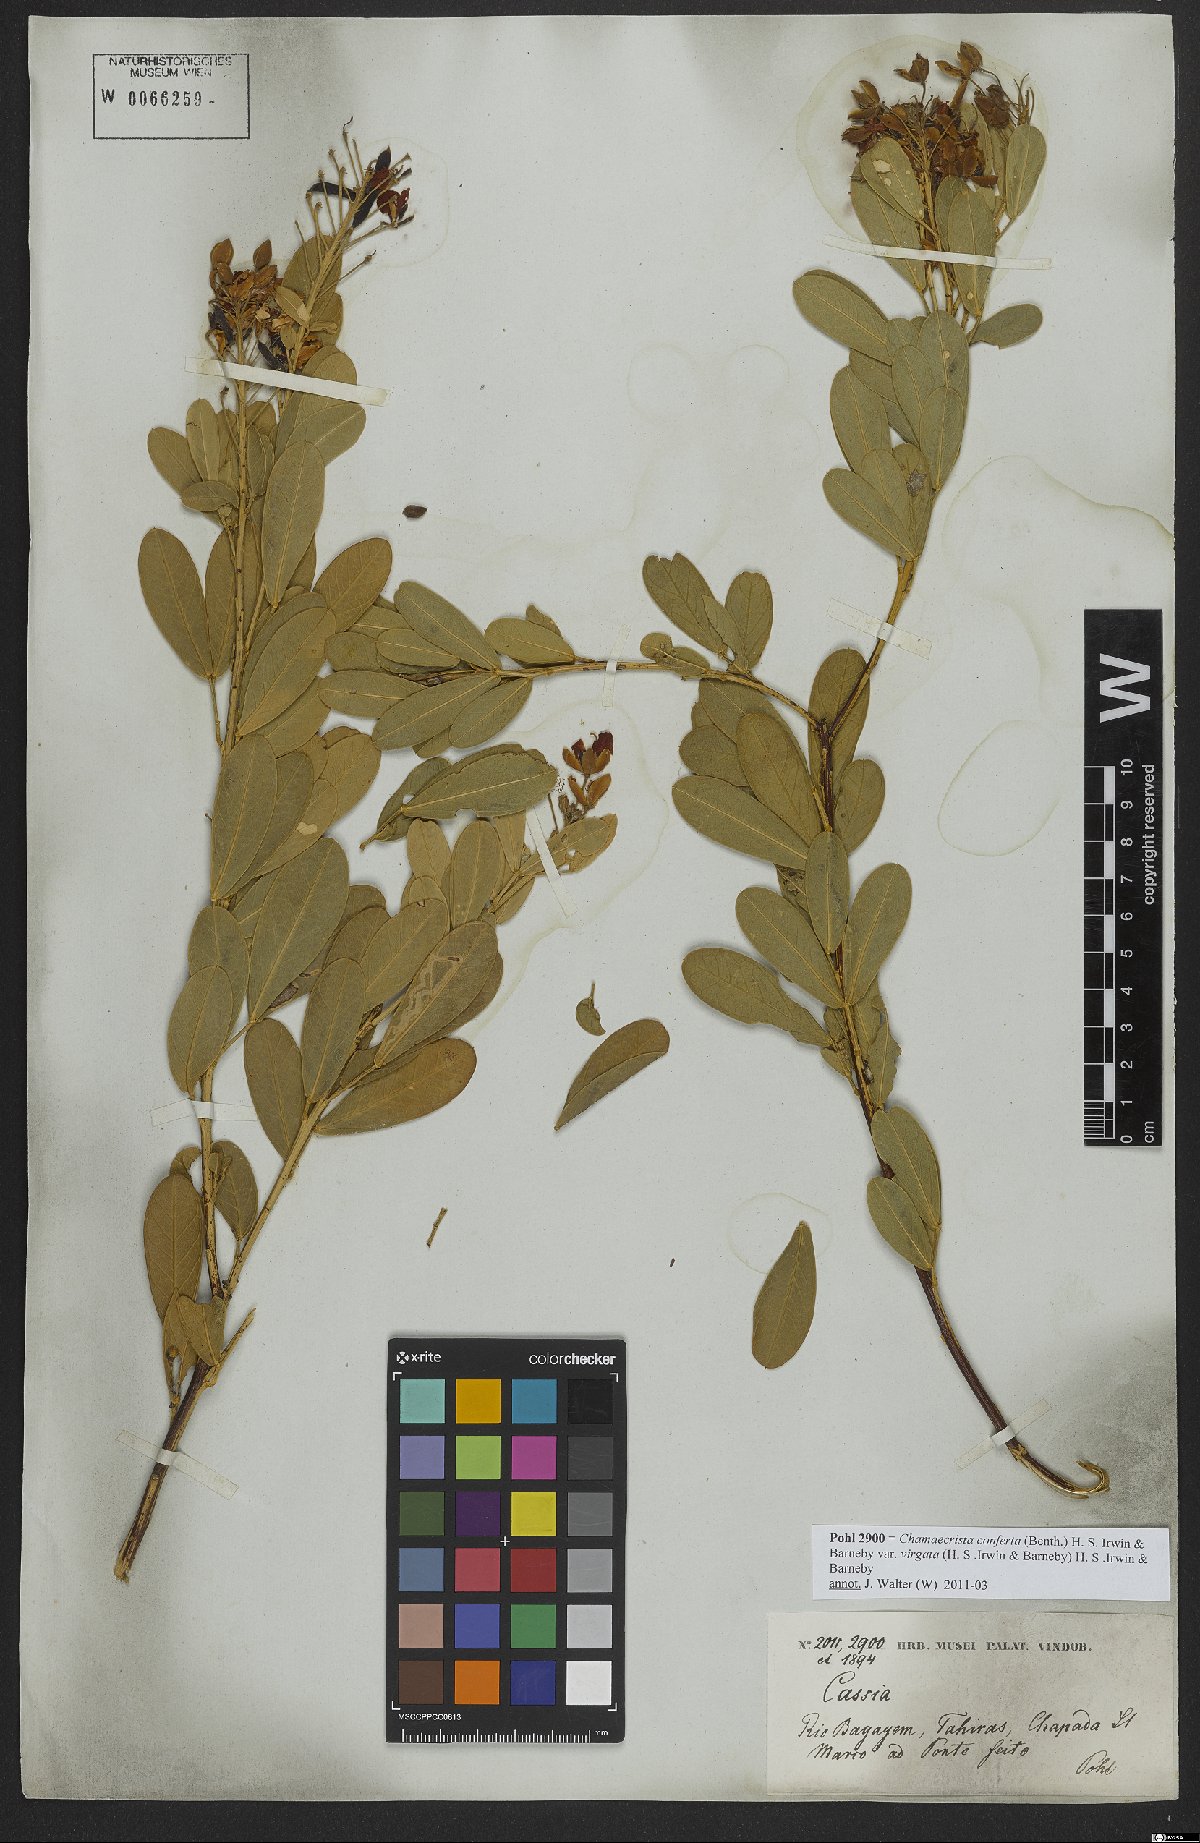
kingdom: Plantae
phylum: Tracheophyta
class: Magnoliopsida
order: Fabales
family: Fabaceae
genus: Chamaecrista
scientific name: Chamaecrista conferta
